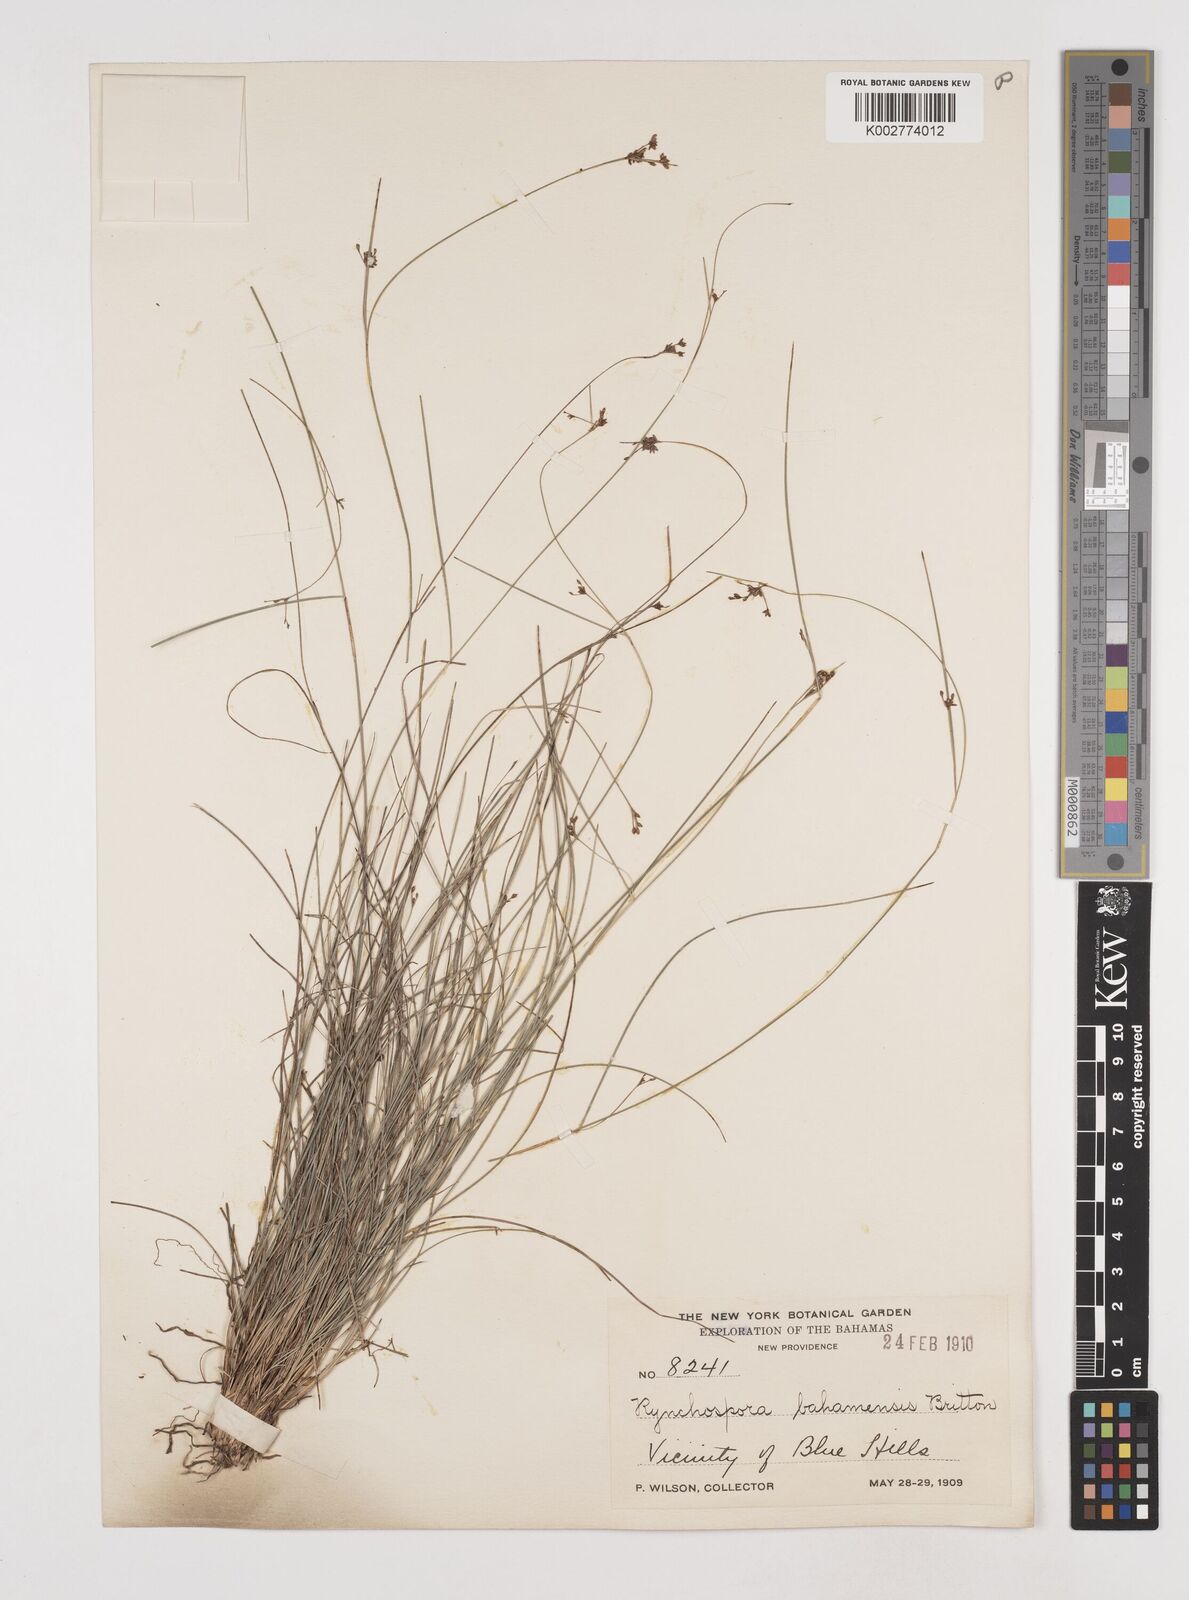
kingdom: Plantae
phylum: Tracheophyta
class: Liliopsida
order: Poales
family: Cyperaceae
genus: Rhynchospora
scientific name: Rhynchospora lindeniana
